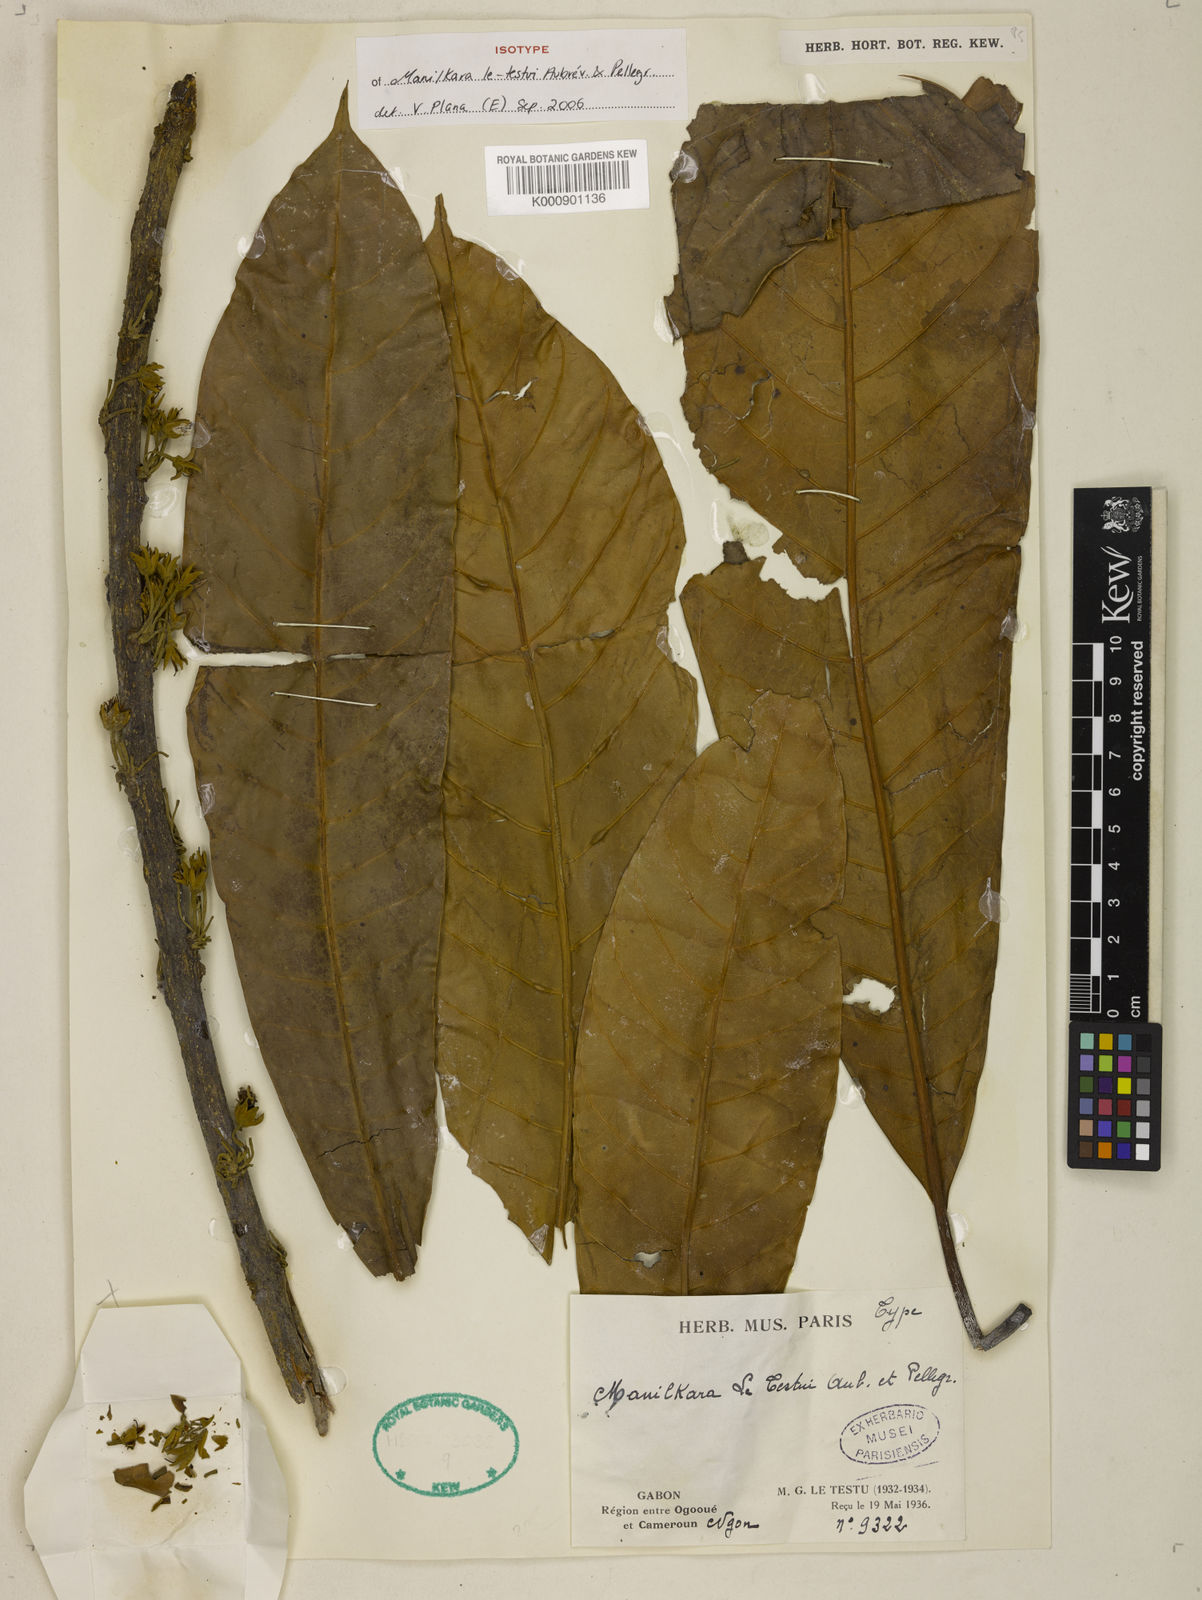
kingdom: Plantae
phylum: Tracheophyta
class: Magnoliopsida
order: Ericales
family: Sapotaceae
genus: Manilkara
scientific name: Manilkara
